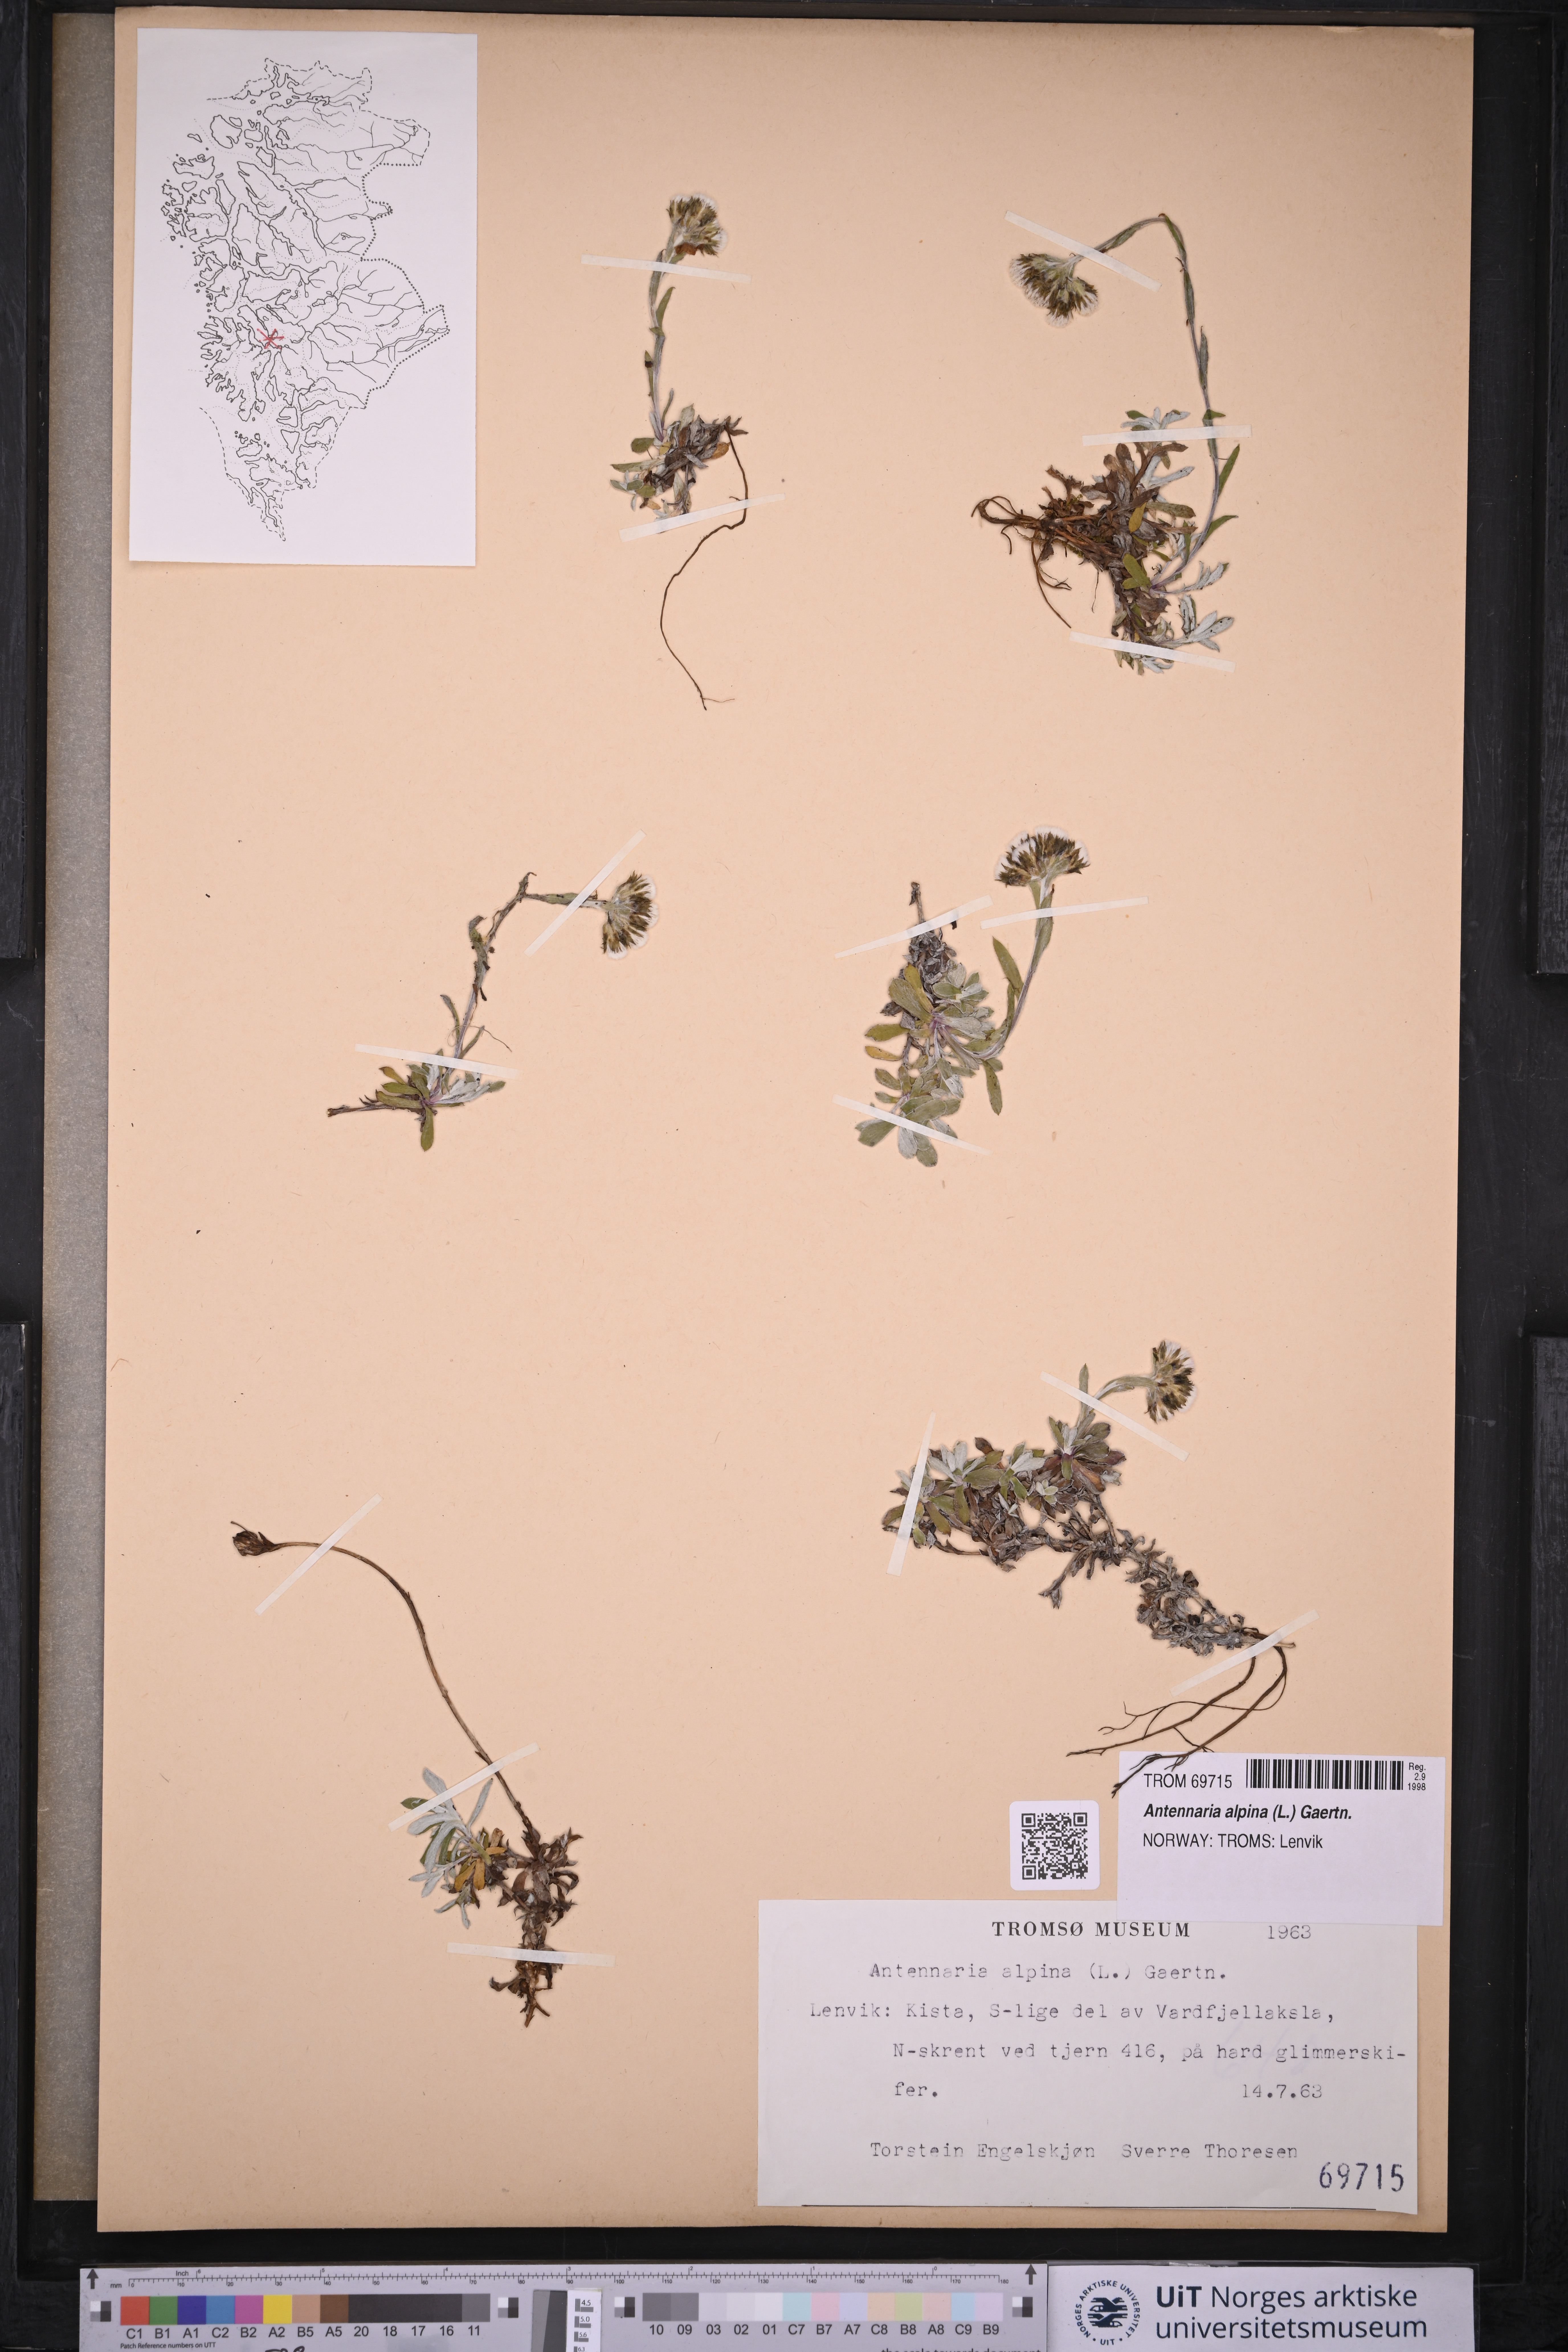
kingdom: Plantae
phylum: Tracheophyta
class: Magnoliopsida
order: Asterales
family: Asteraceae
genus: Antennaria
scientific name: Antennaria alpina
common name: Alpine pussytoes
